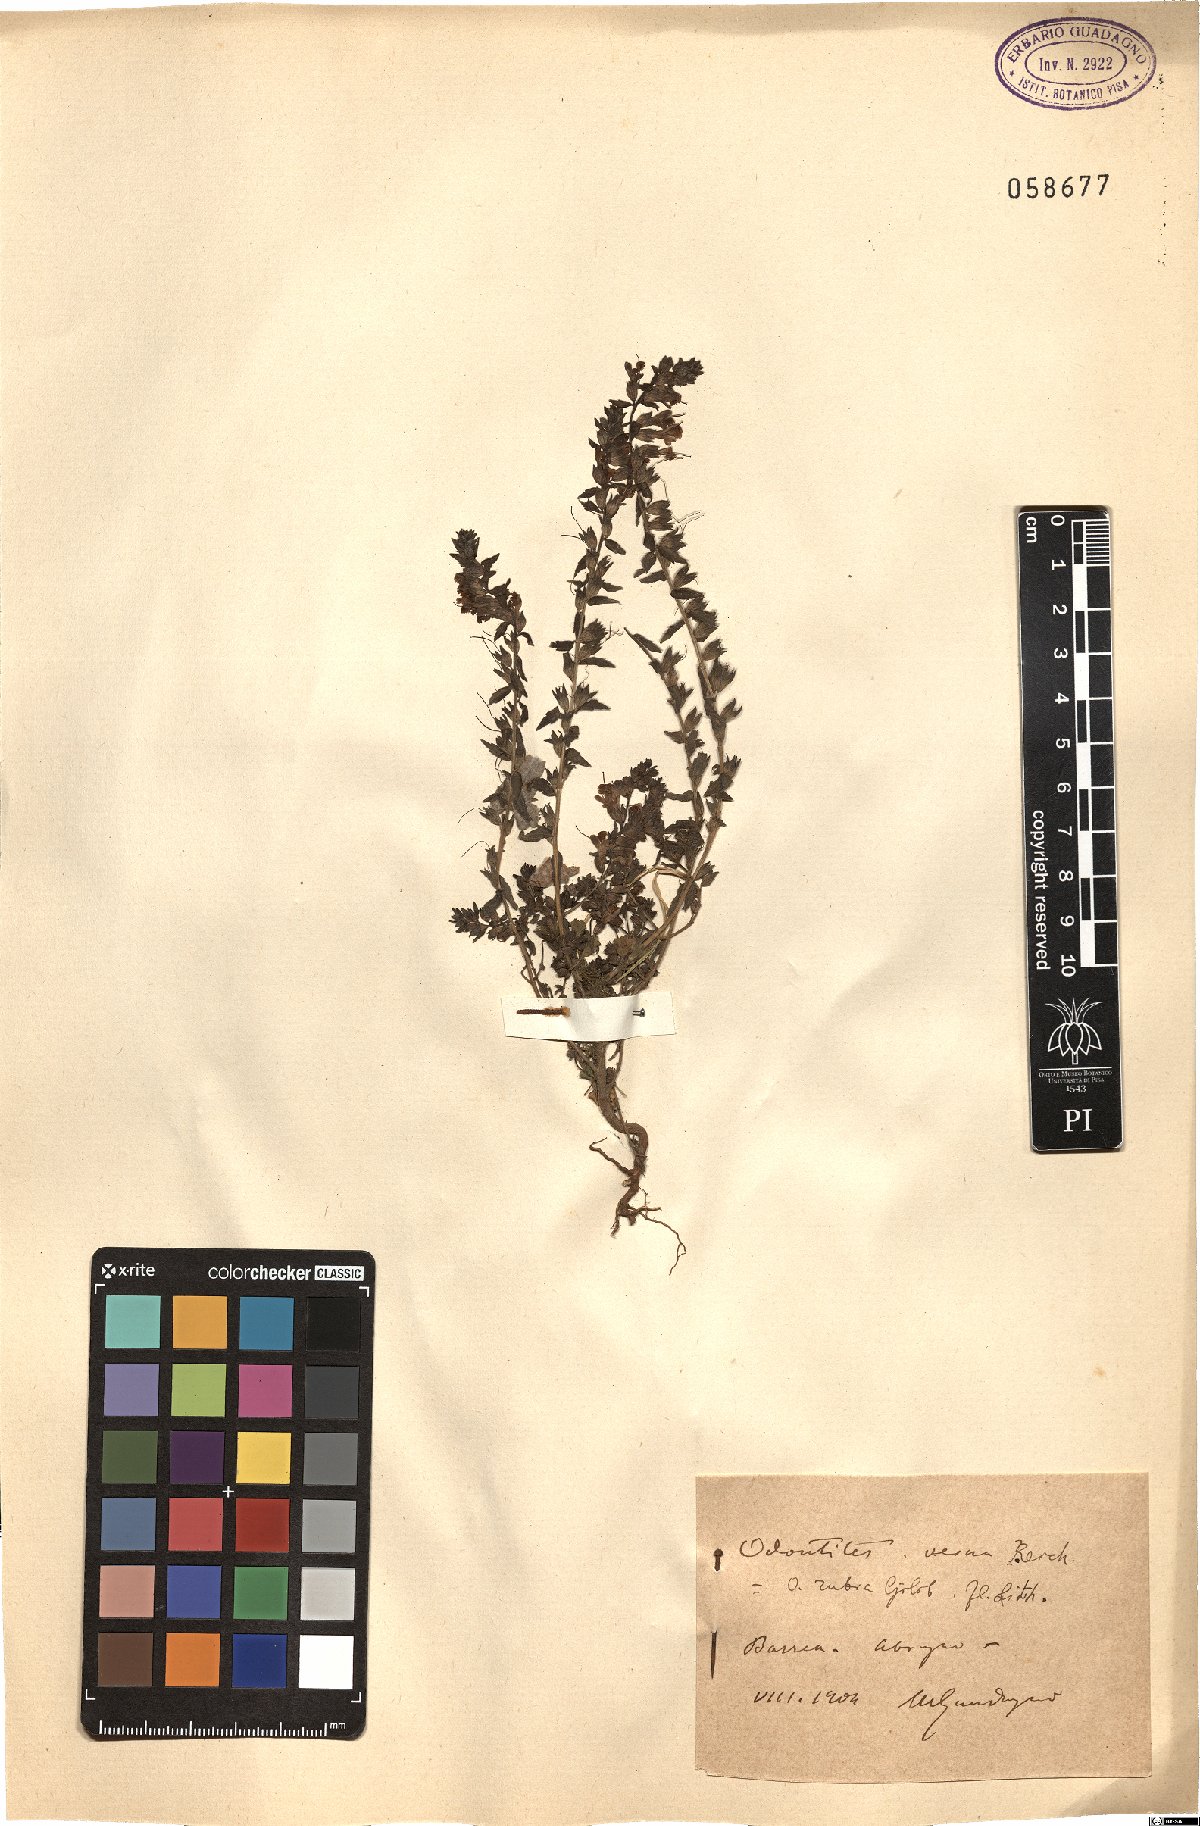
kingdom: Plantae
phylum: Tracheophyta
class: Magnoliopsida
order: Lamiales
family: Orobanchaceae
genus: Odontites
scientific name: Odontites vernus
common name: Red bartsia
